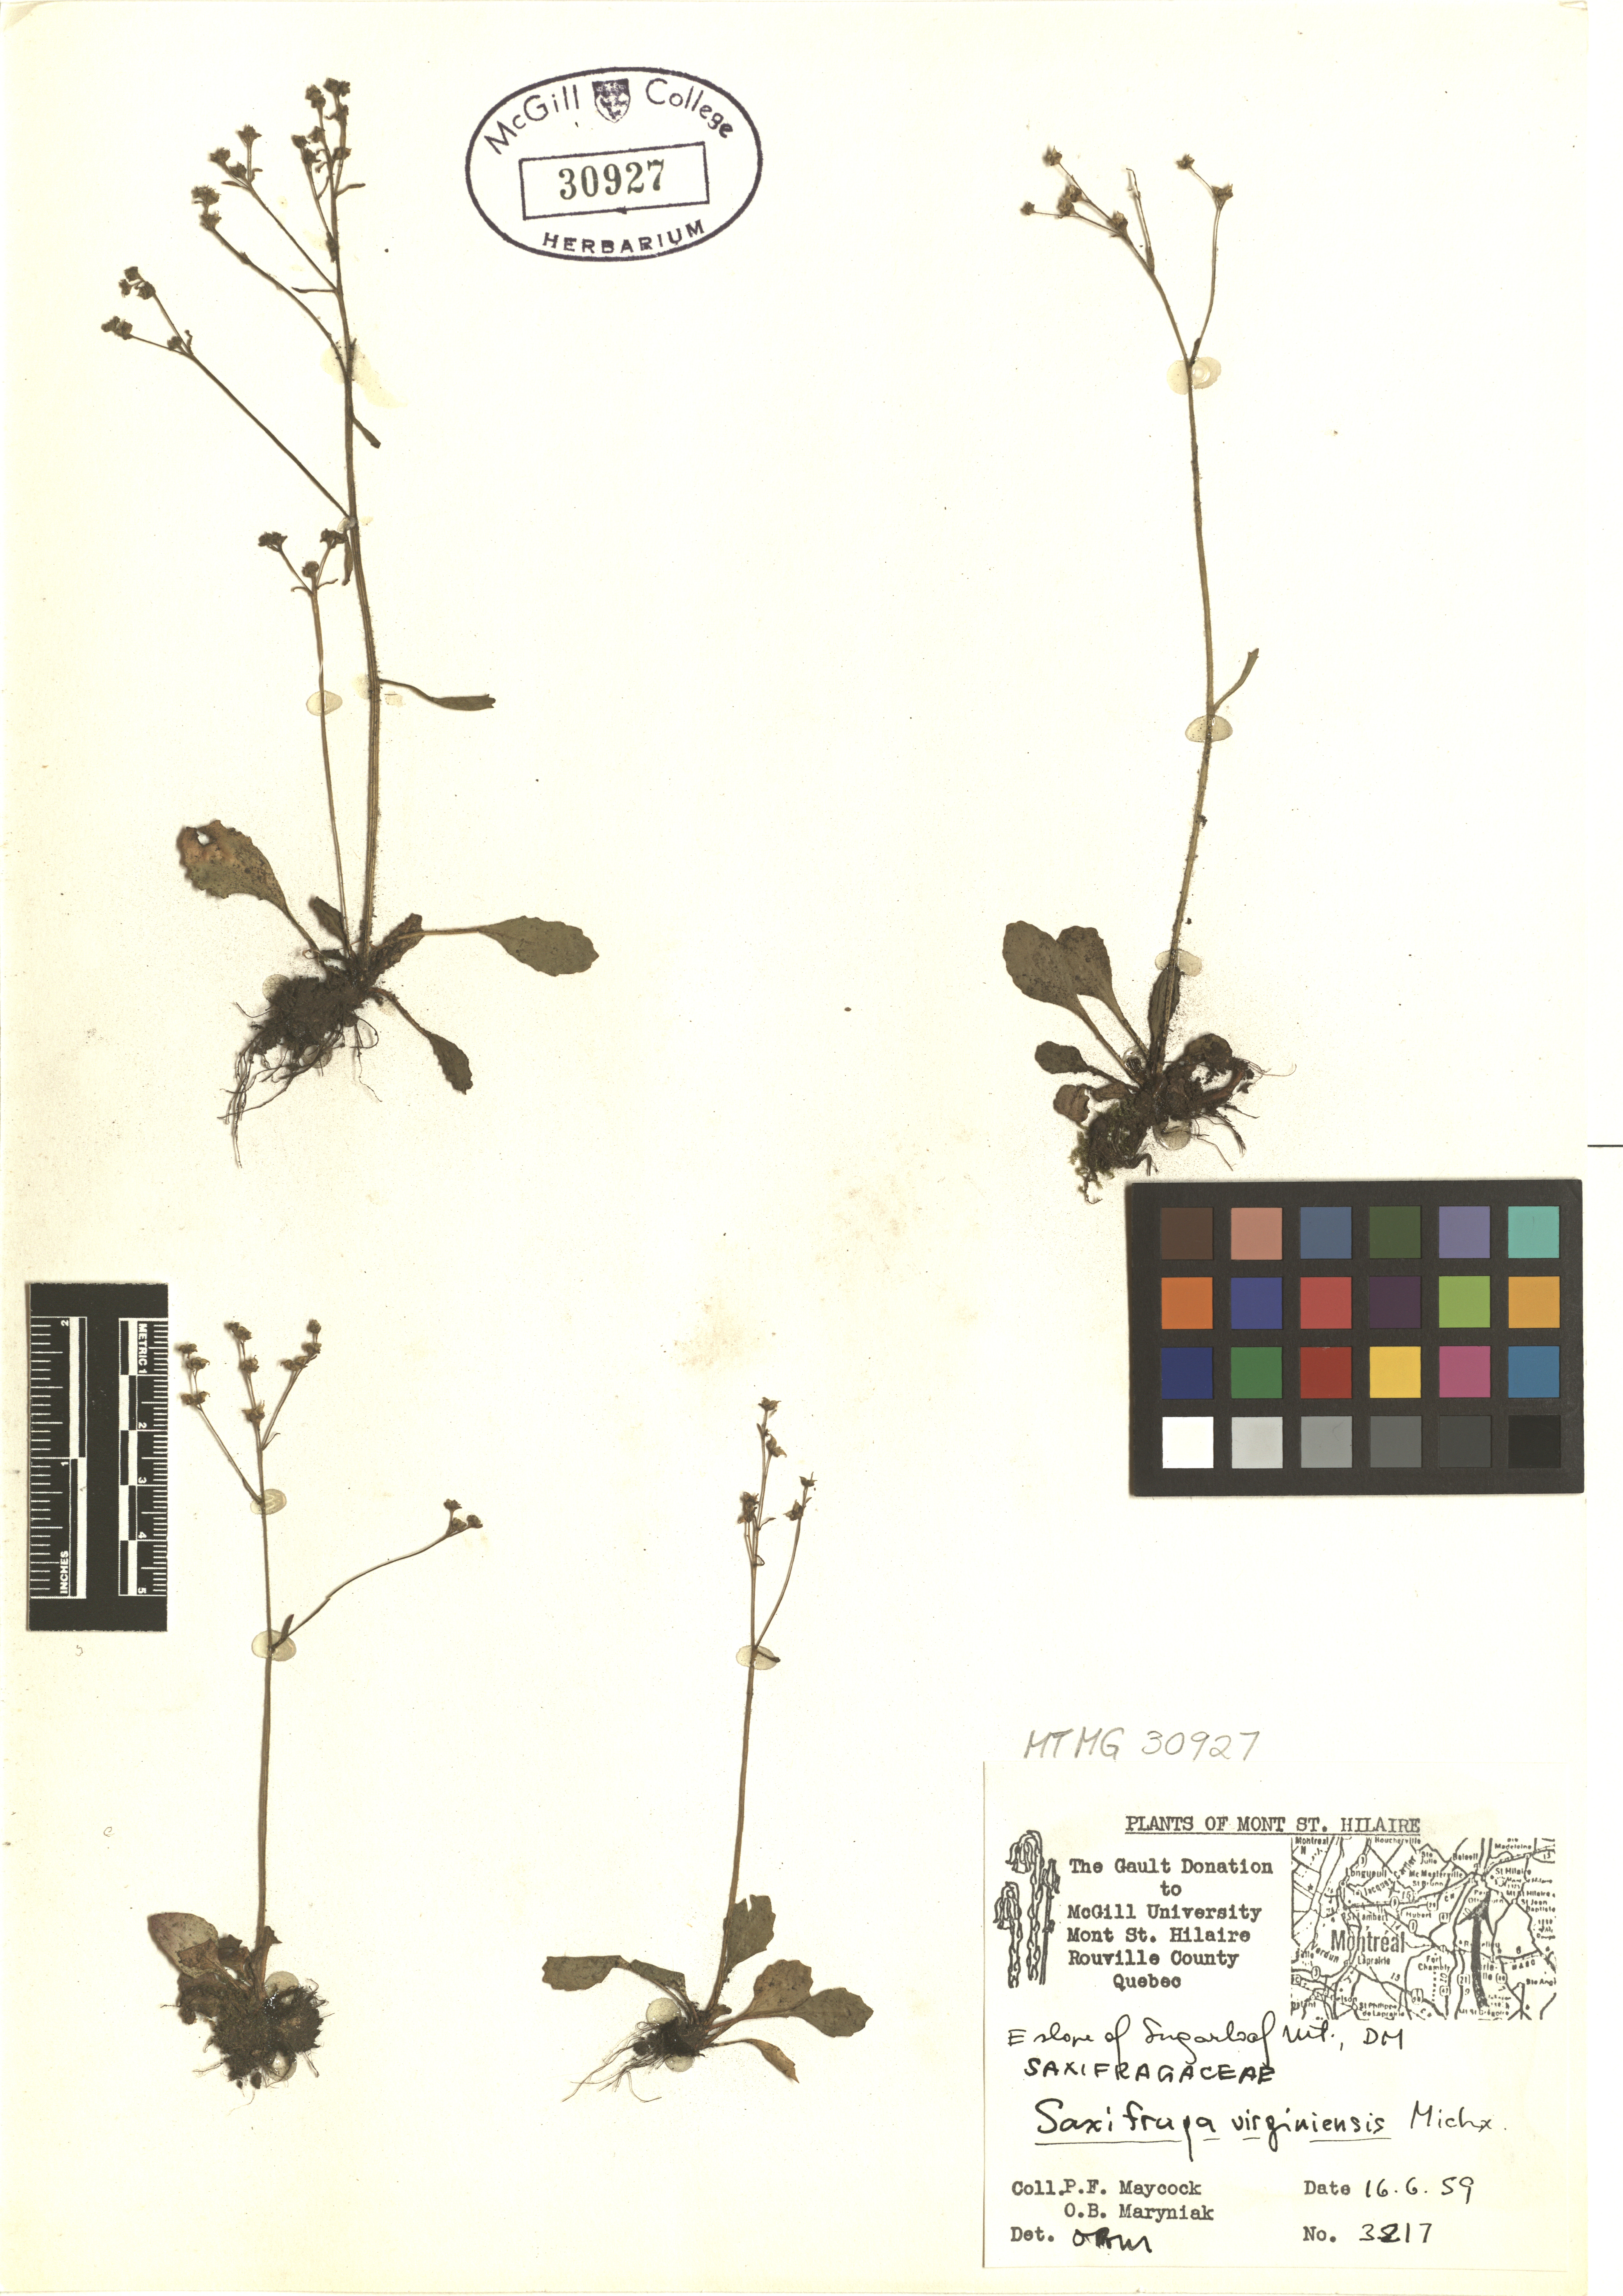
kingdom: Plantae
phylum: Tracheophyta
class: Magnoliopsida
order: Saxifragales
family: Saxifragaceae
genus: Micranthes
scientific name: Micranthes virginiensis
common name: Early saxifrage
